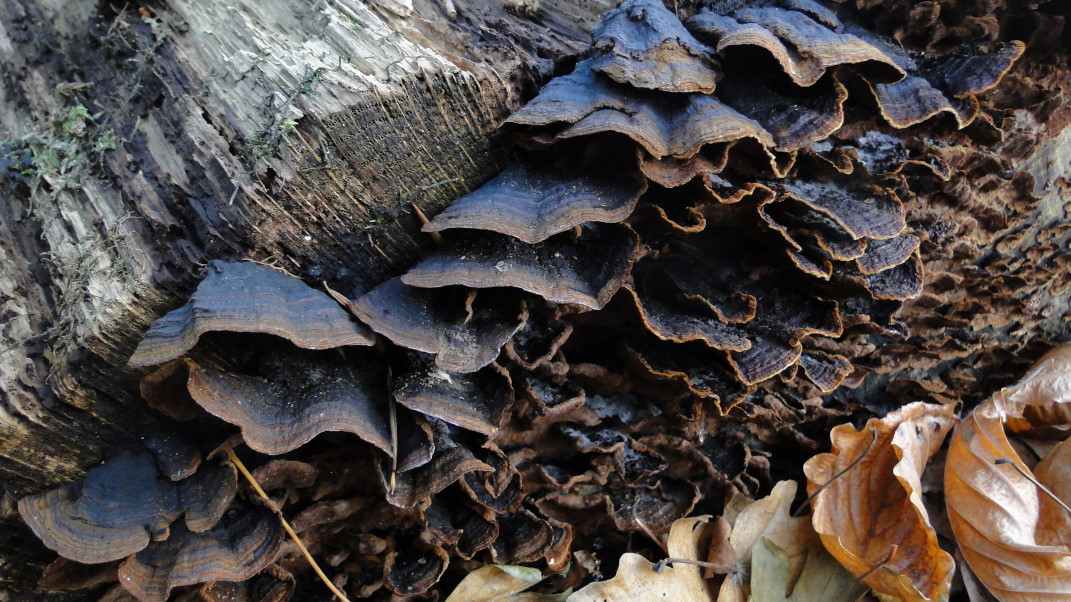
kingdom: Fungi
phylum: Basidiomycota
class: Agaricomycetes
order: Hymenochaetales
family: Hymenochaetaceae
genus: Hymenochaete
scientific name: Hymenochaete rubiginosa
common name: stiv ruslædersvamp
